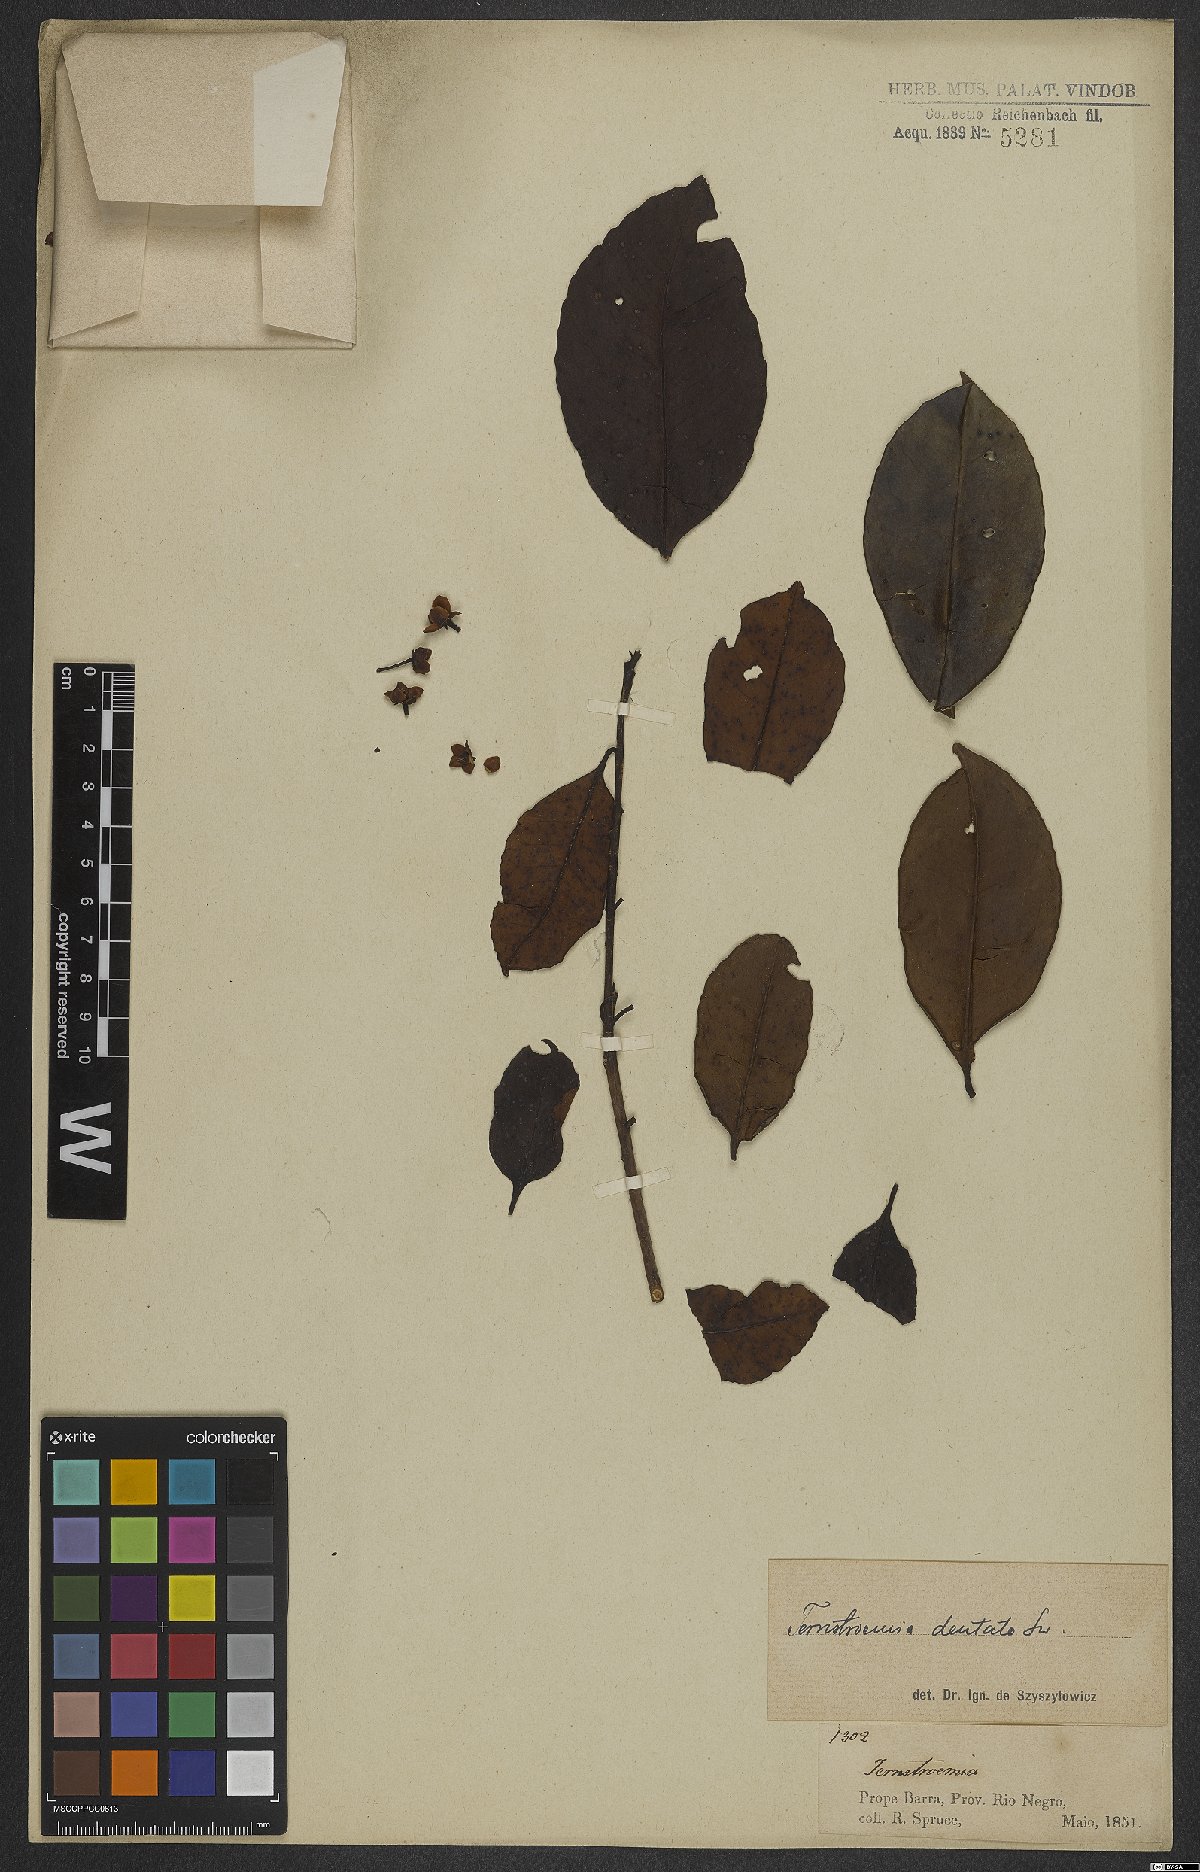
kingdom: Plantae
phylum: Tracheophyta
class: Magnoliopsida
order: Ericales
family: Pentaphylacaceae
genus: Ternstroemia
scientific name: Ternstroemia dentata
